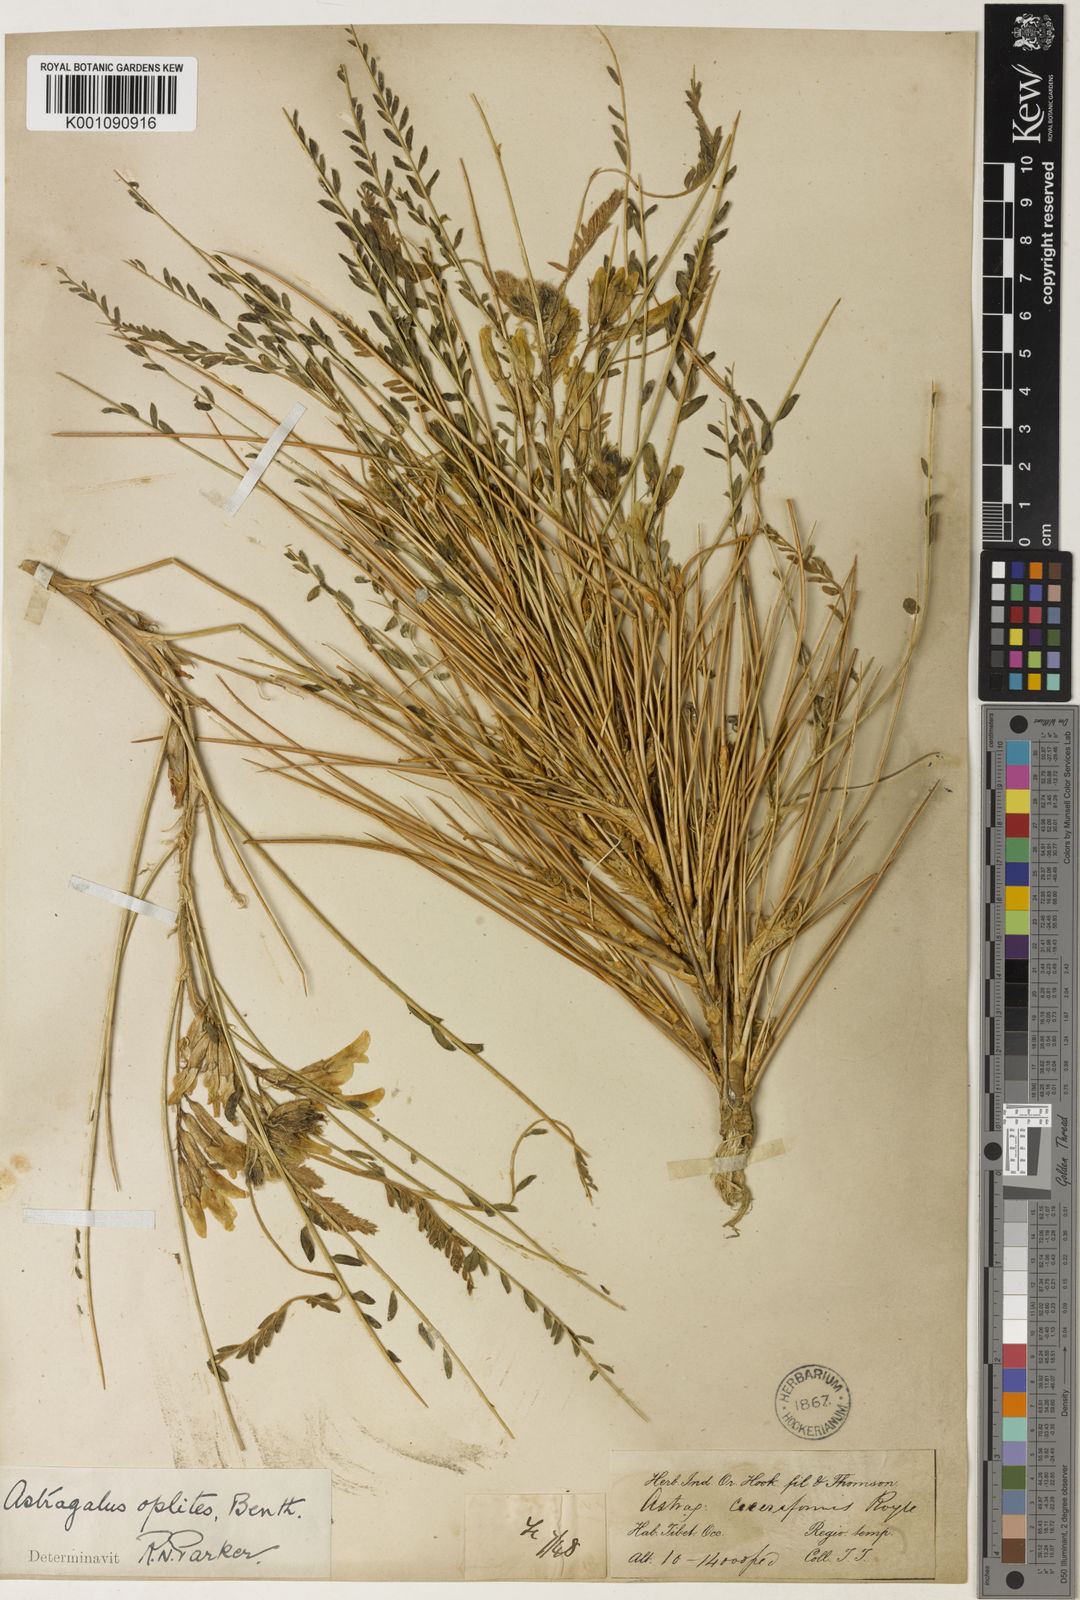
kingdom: Plantae
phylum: Tracheophyta
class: Magnoliopsida
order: Fabales
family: Fabaceae
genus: Astragalus
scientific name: Astragalus
